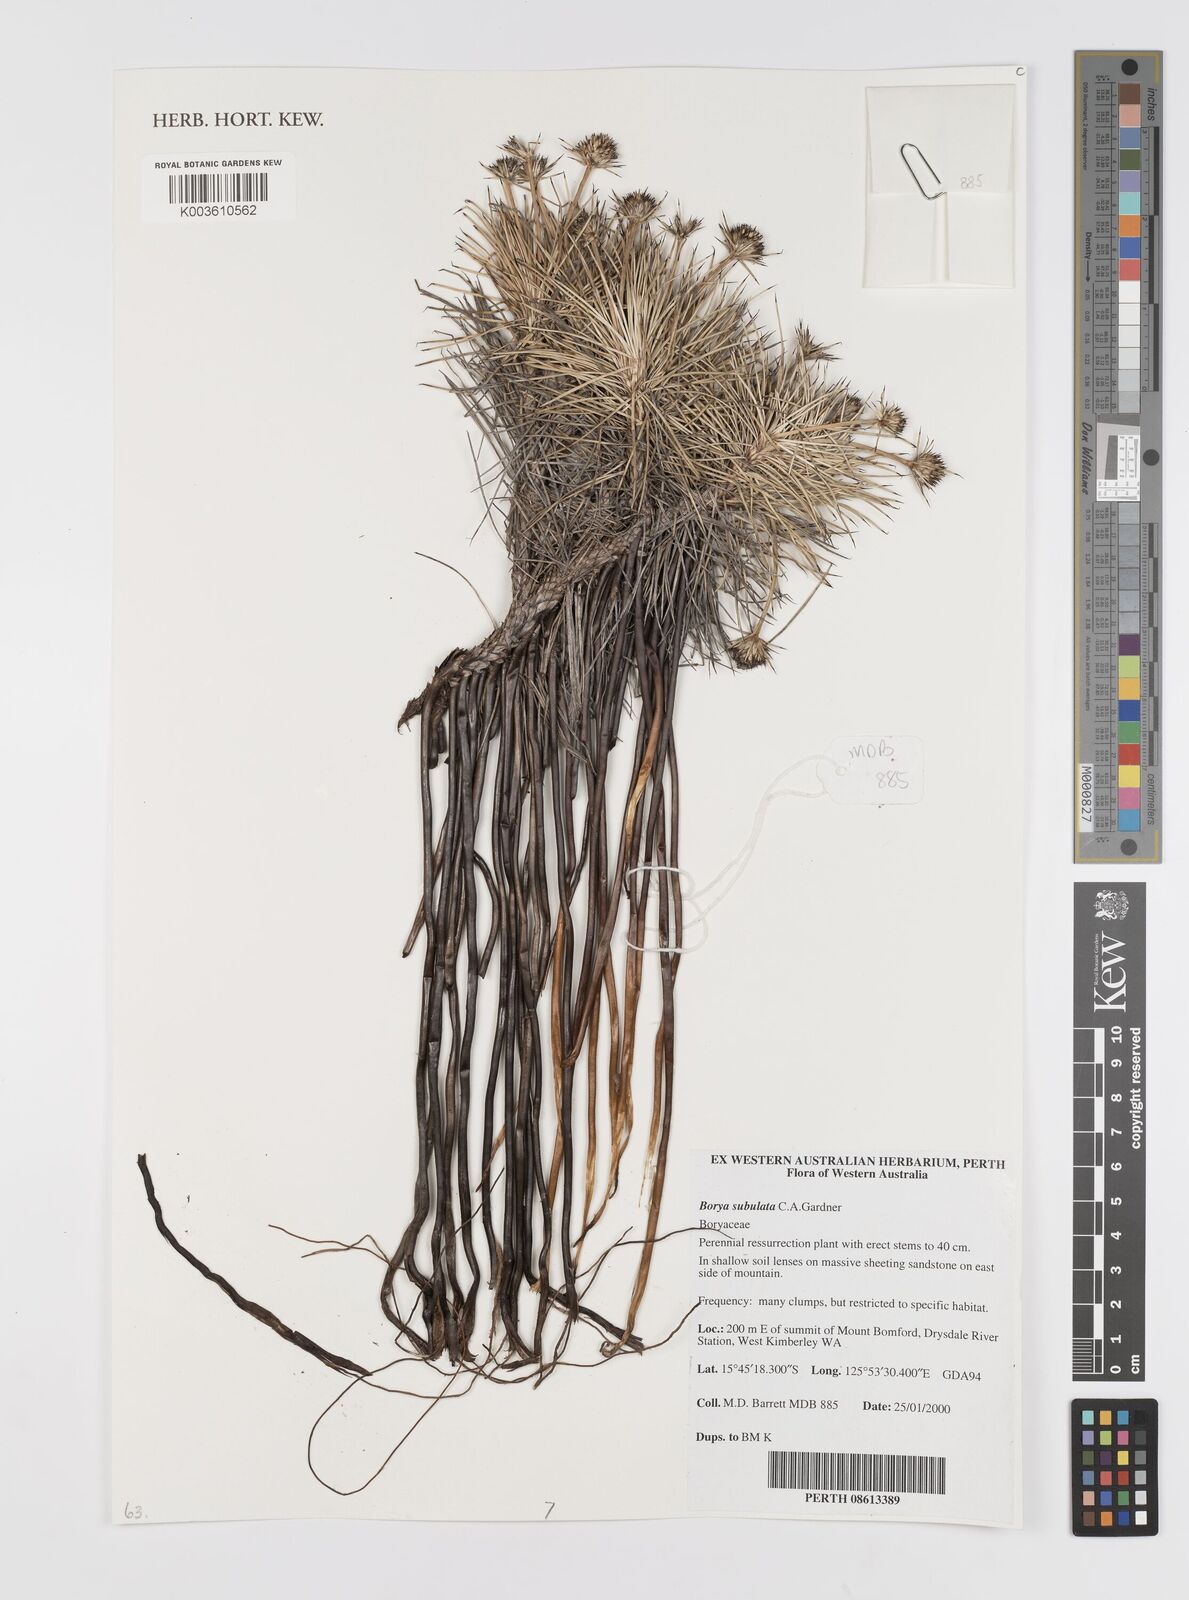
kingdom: Plantae
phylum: Tracheophyta
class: Liliopsida
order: Asparagales
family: Boryaceae
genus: Borya
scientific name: Borya subulata
